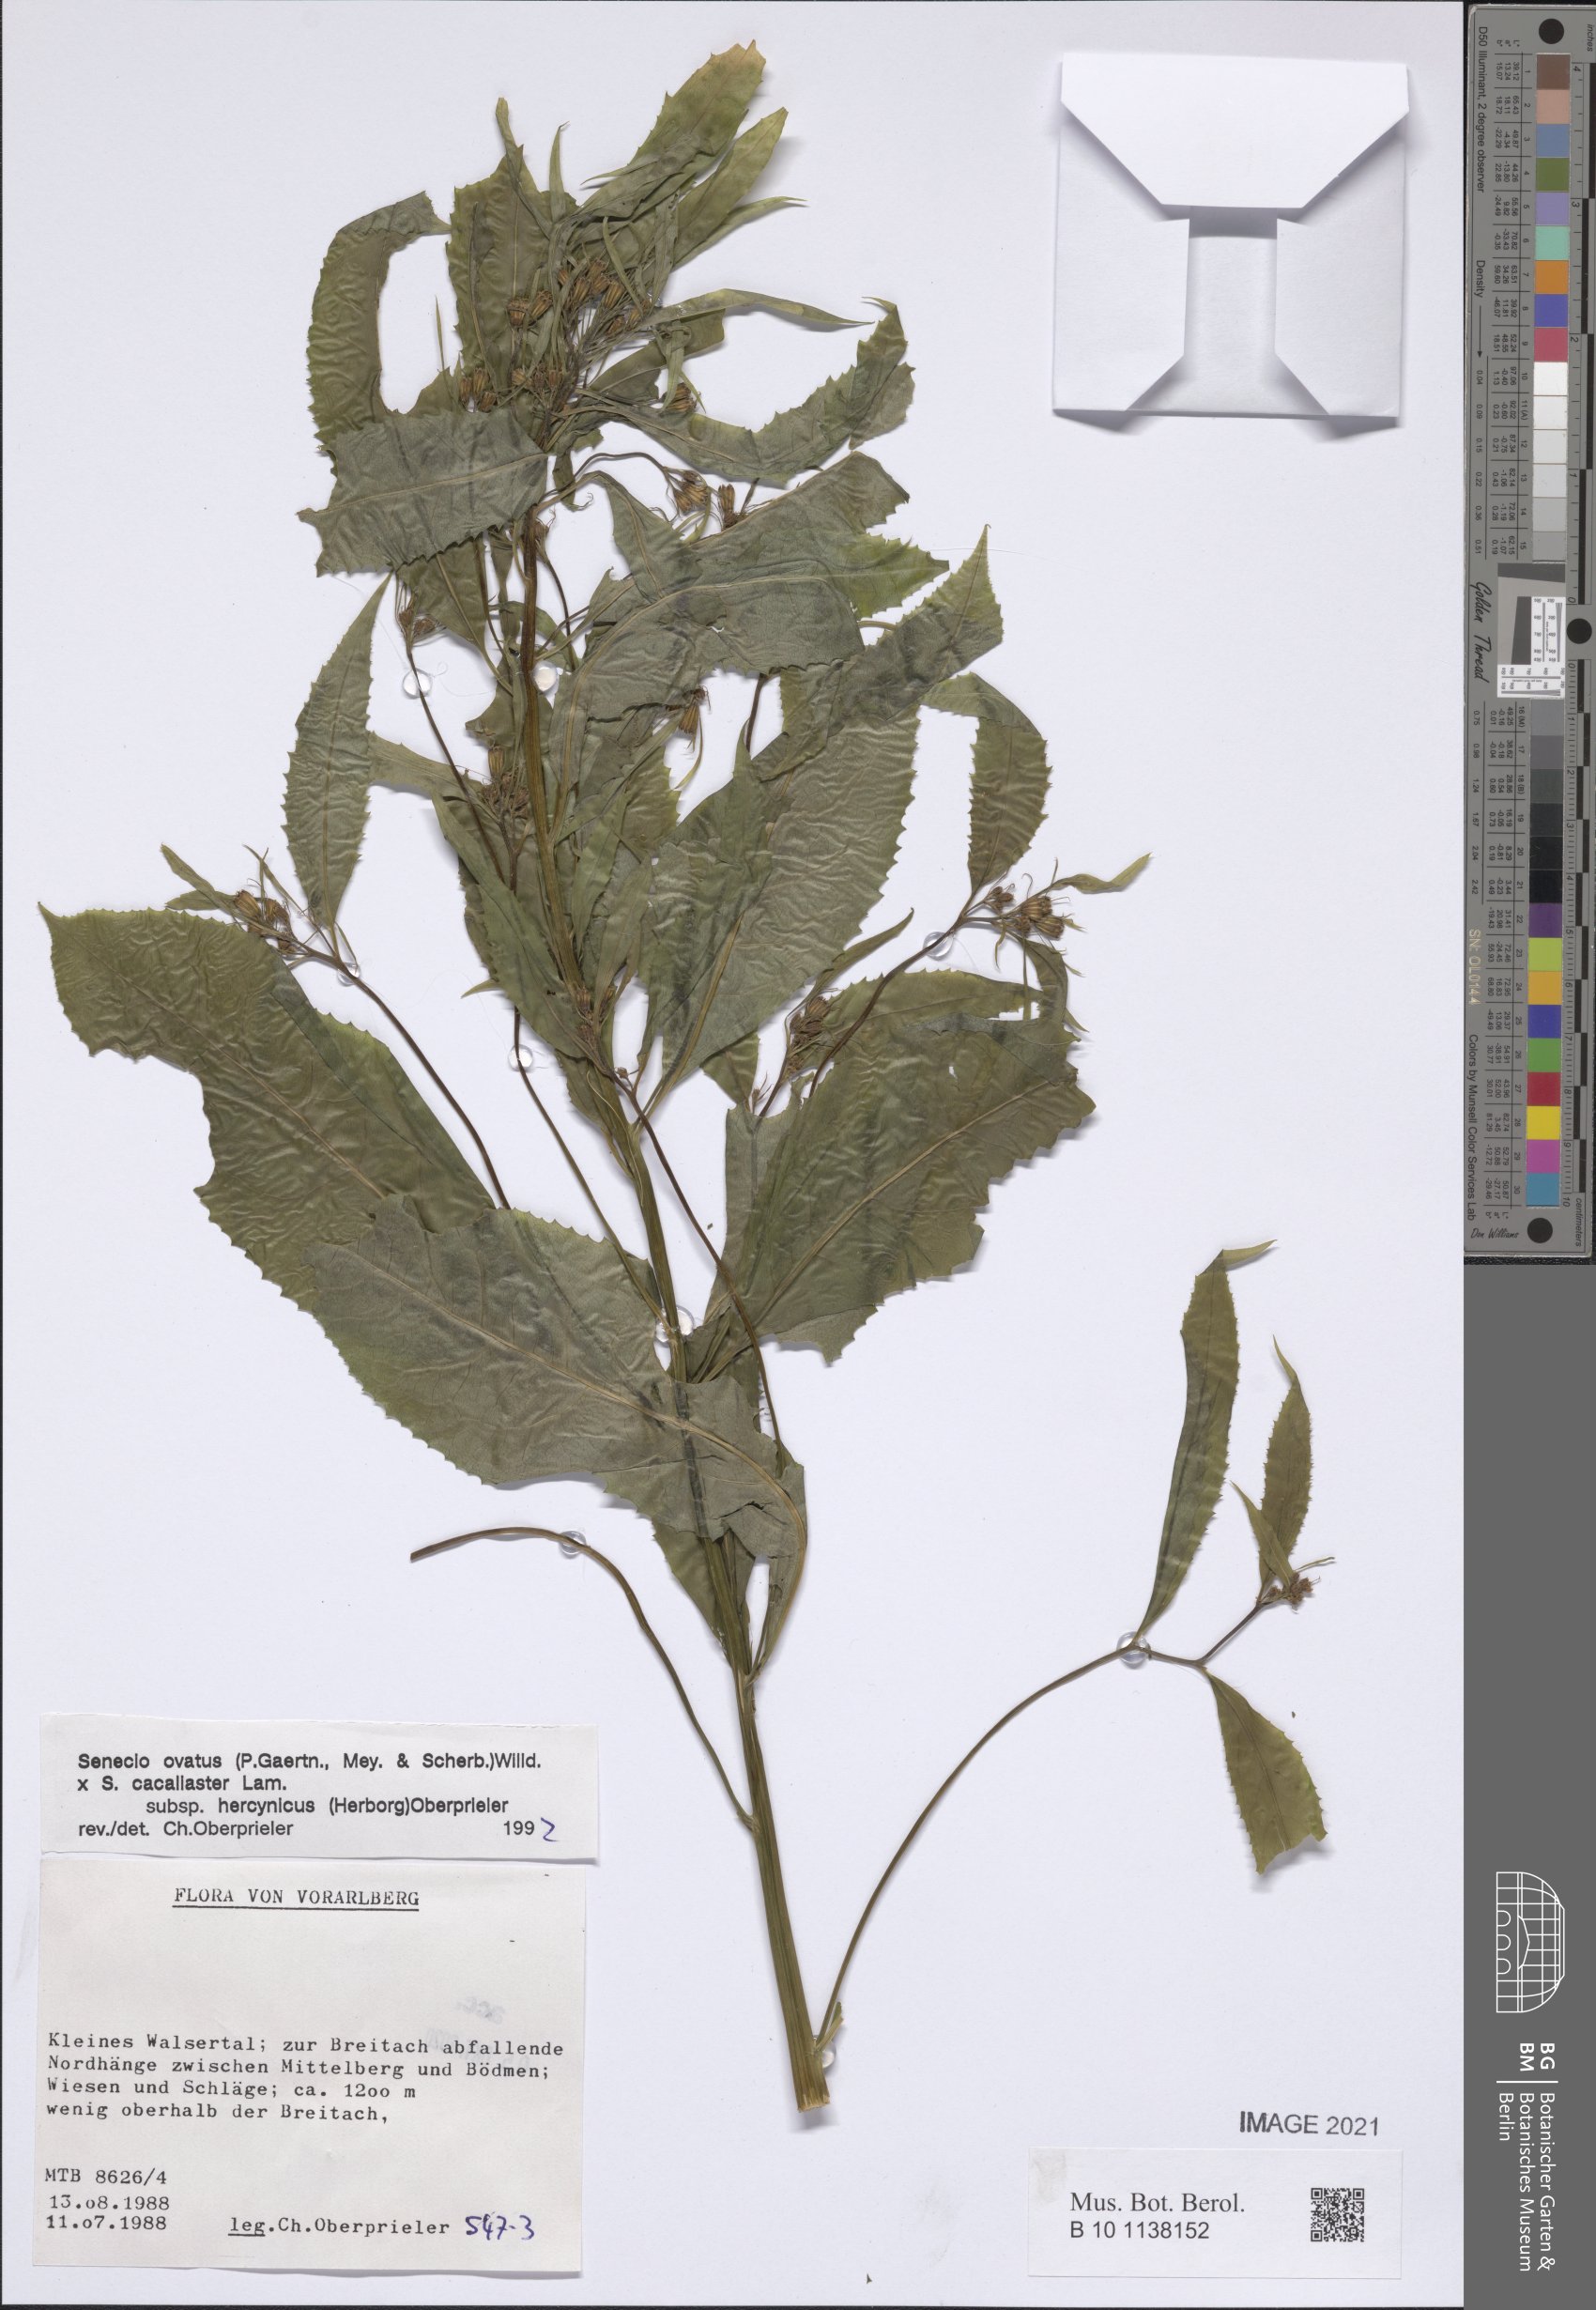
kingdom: Plantae
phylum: Tracheophyta
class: Magnoliopsida
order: Asterales
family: Asteraceae
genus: Senecio
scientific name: Senecio ovatus
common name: Wood ragwort
